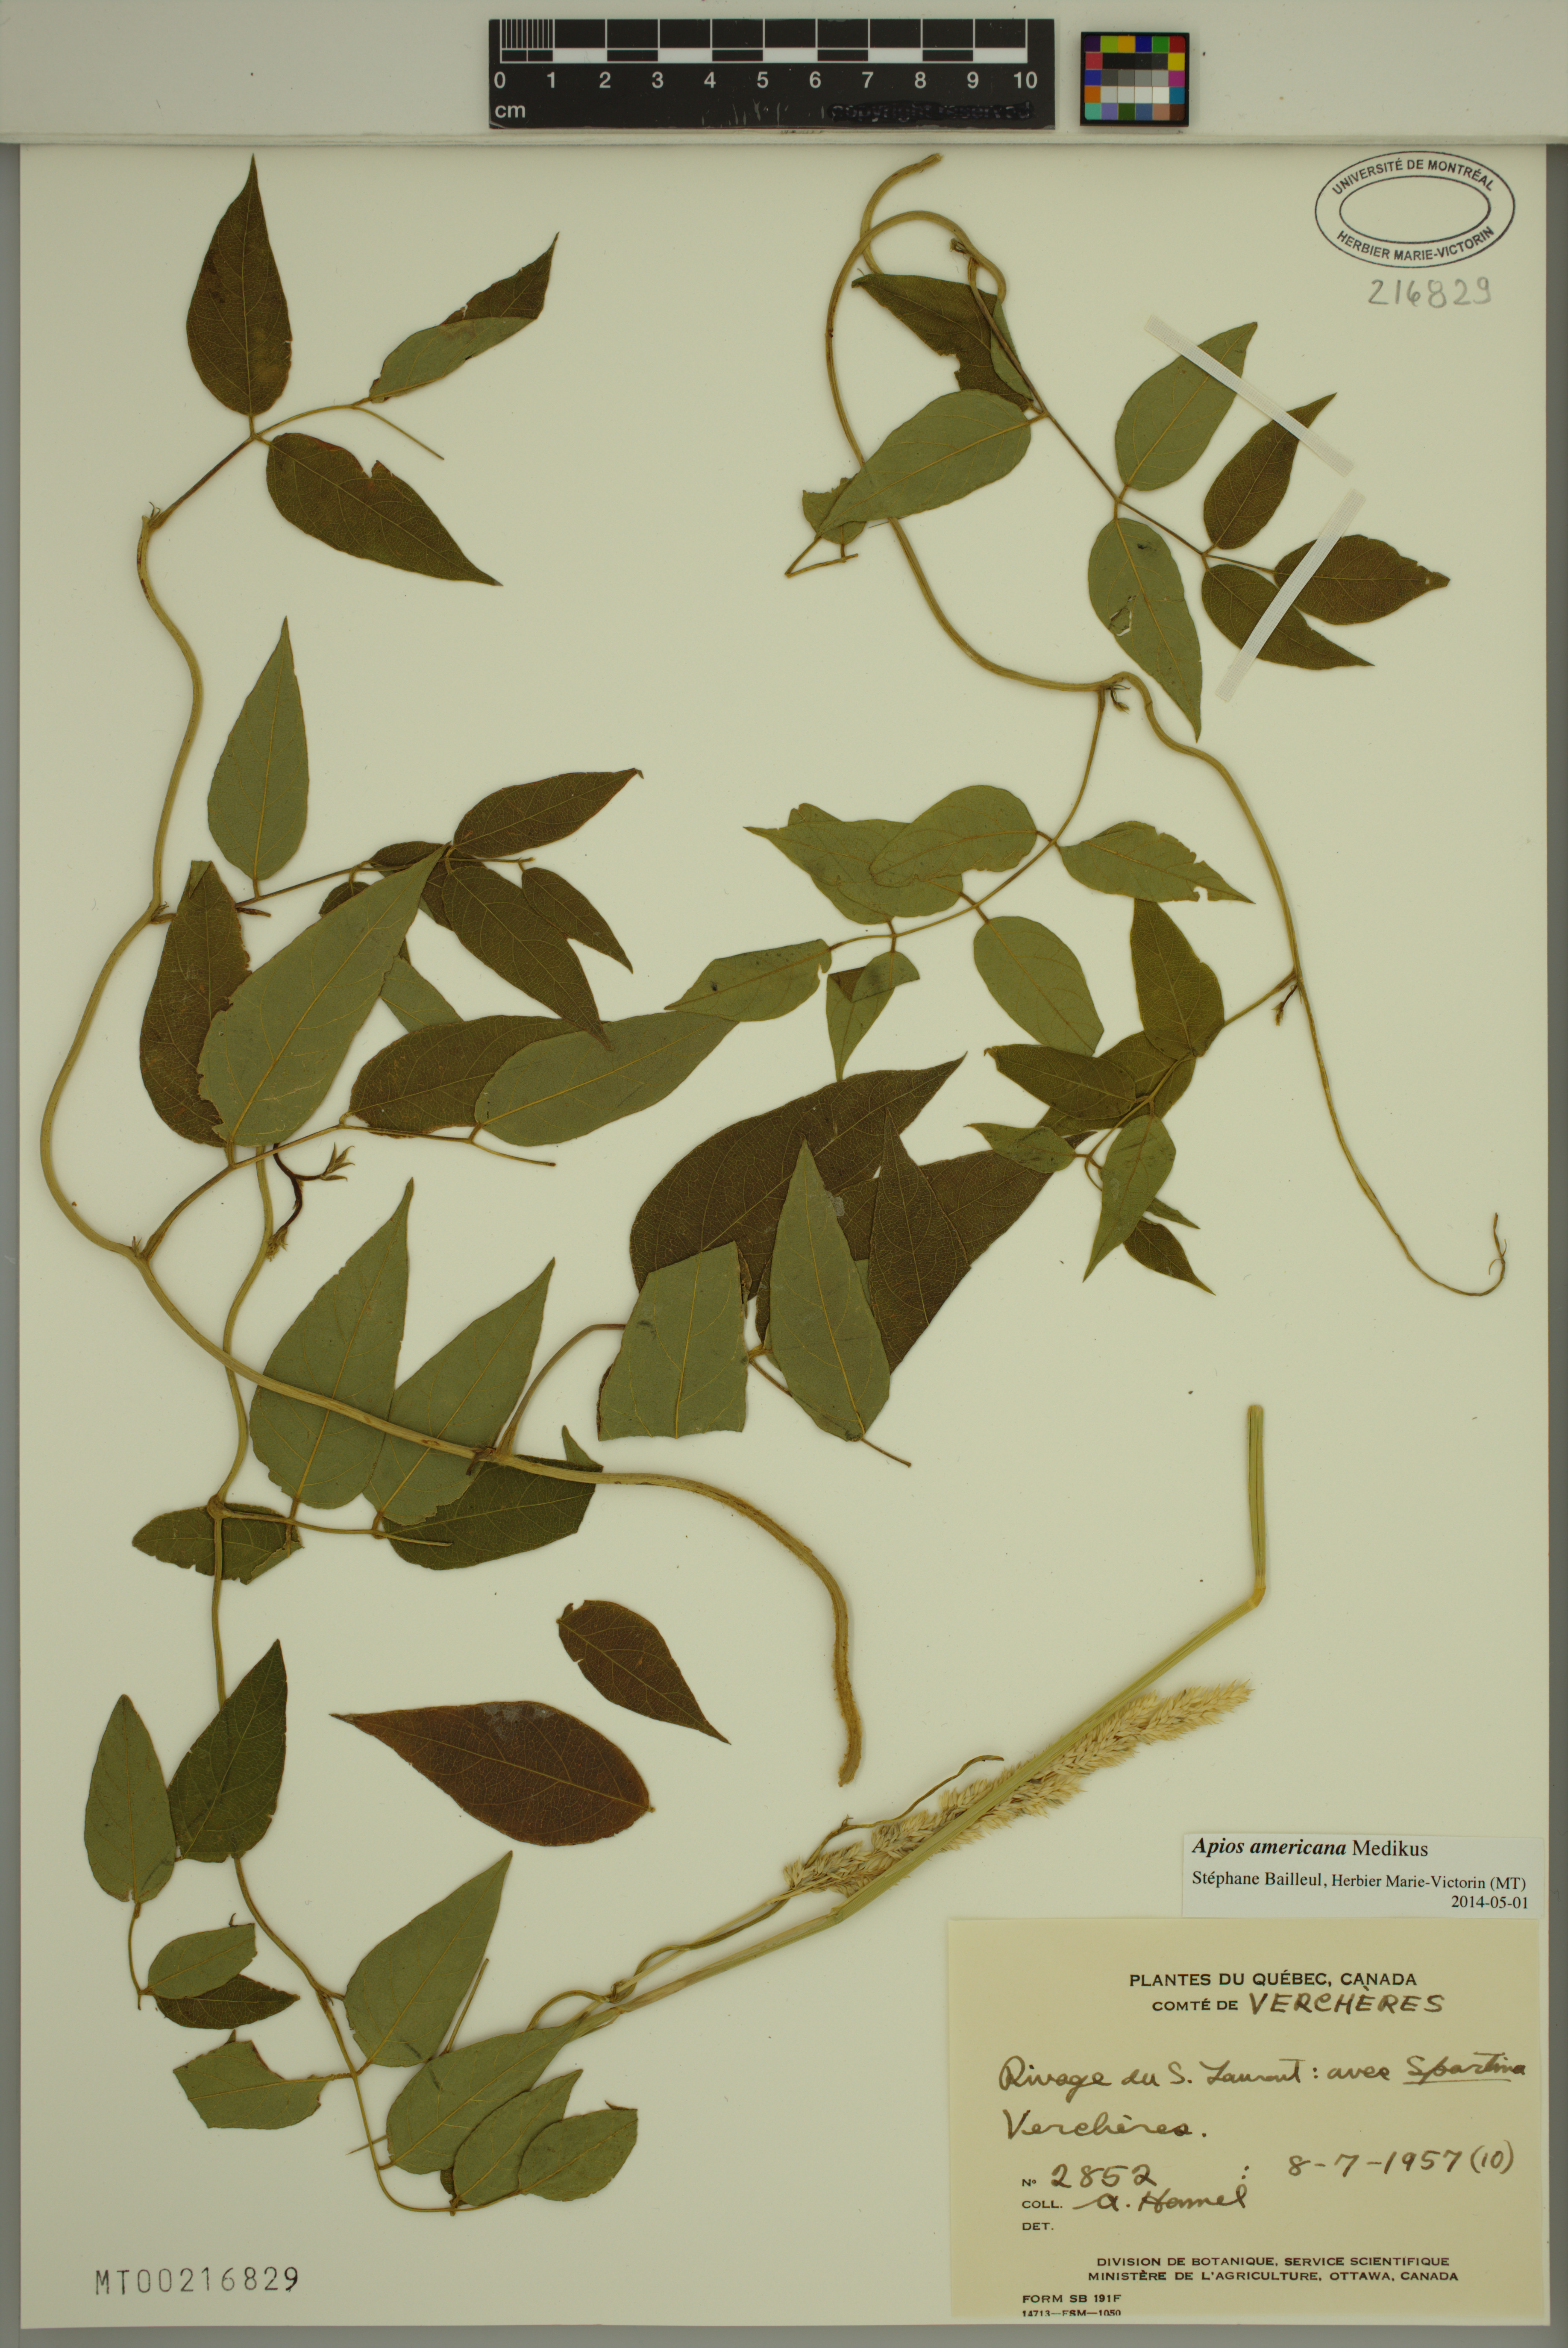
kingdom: Plantae
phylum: Tracheophyta
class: Magnoliopsida
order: Fabales
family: Fabaceae
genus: Apios
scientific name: Apios americana
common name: American potato-bean
